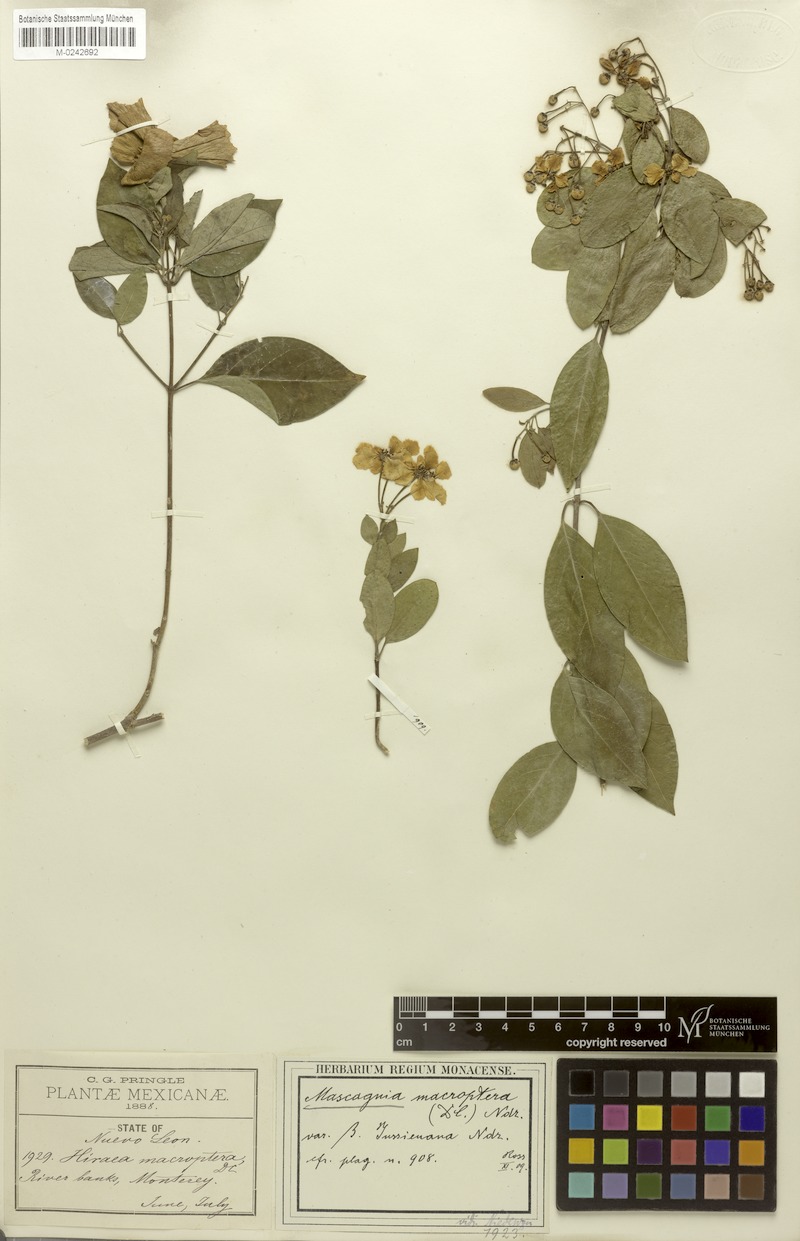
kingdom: Plantae
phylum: Tracheophyta
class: Magnoliopsida
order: Malpighiales
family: Malpighiaceae
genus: Callaeum
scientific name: Callaeum macropterum
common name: Mexican butterfly-vine
